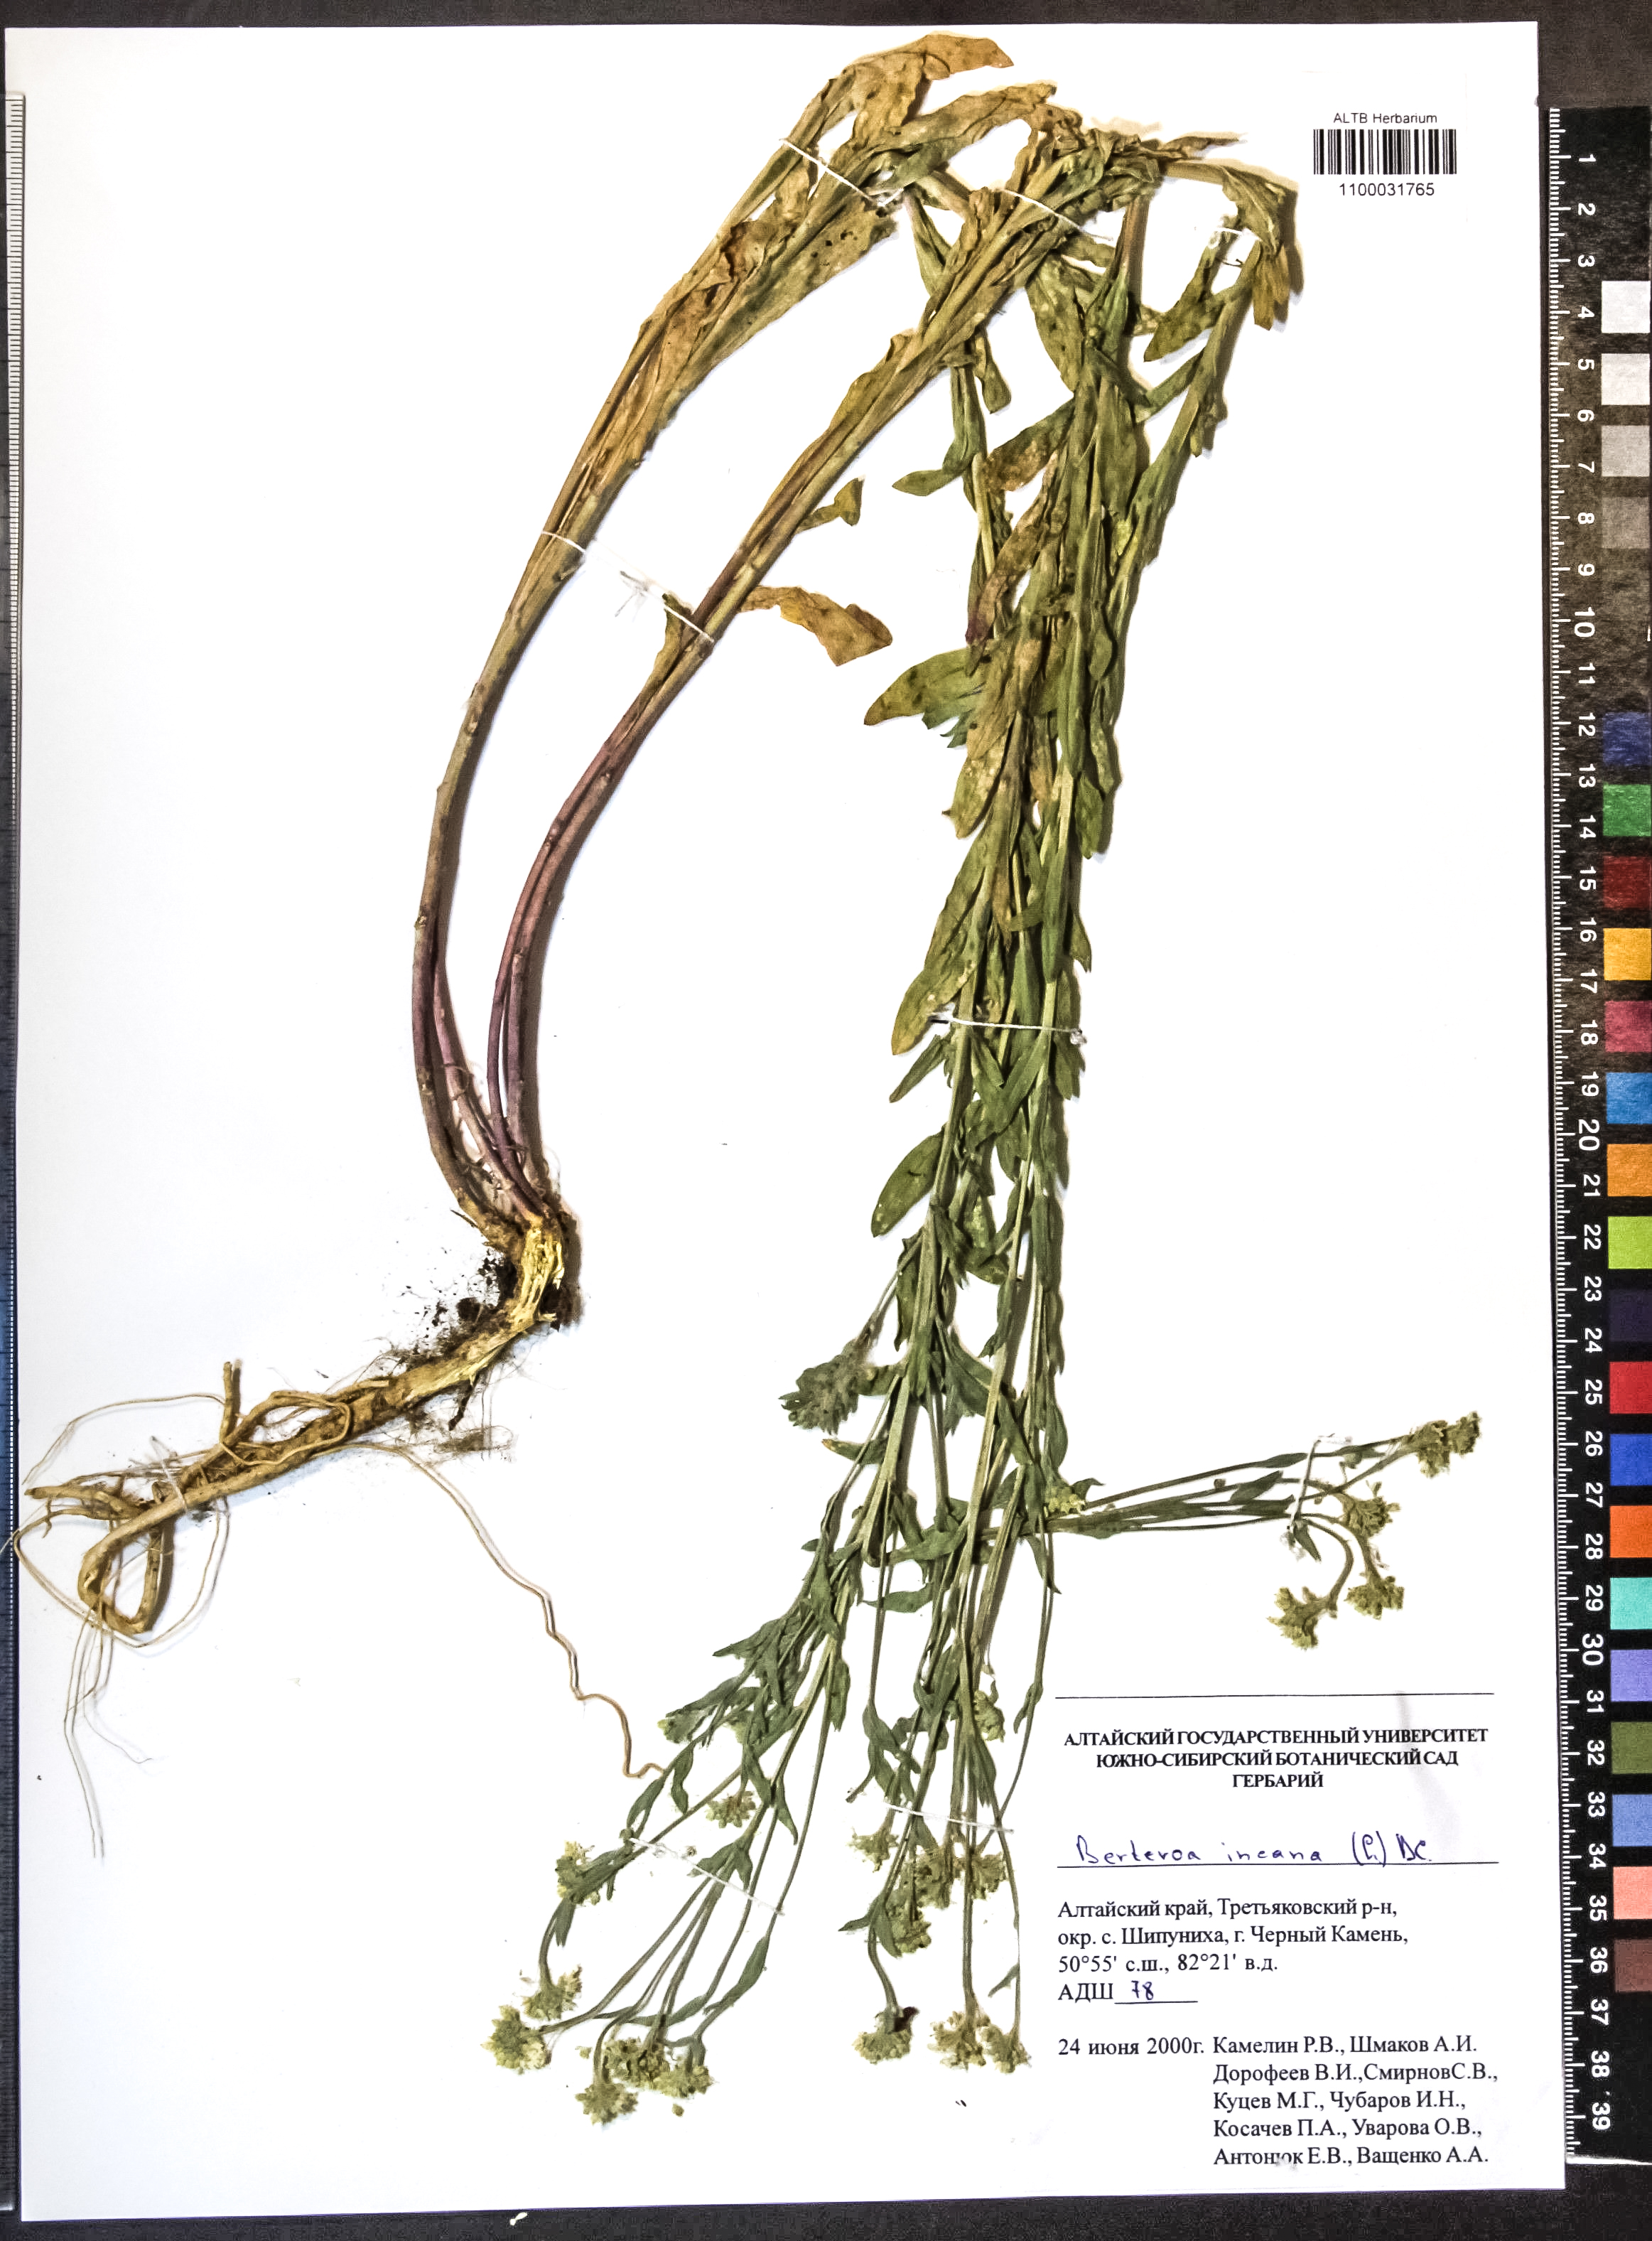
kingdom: Plantae
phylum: Tracheophyta
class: Magnoliopsida
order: Brassicales
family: Brassicaceae
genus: Berteroa
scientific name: Berteroa incana
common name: Hoary alison
